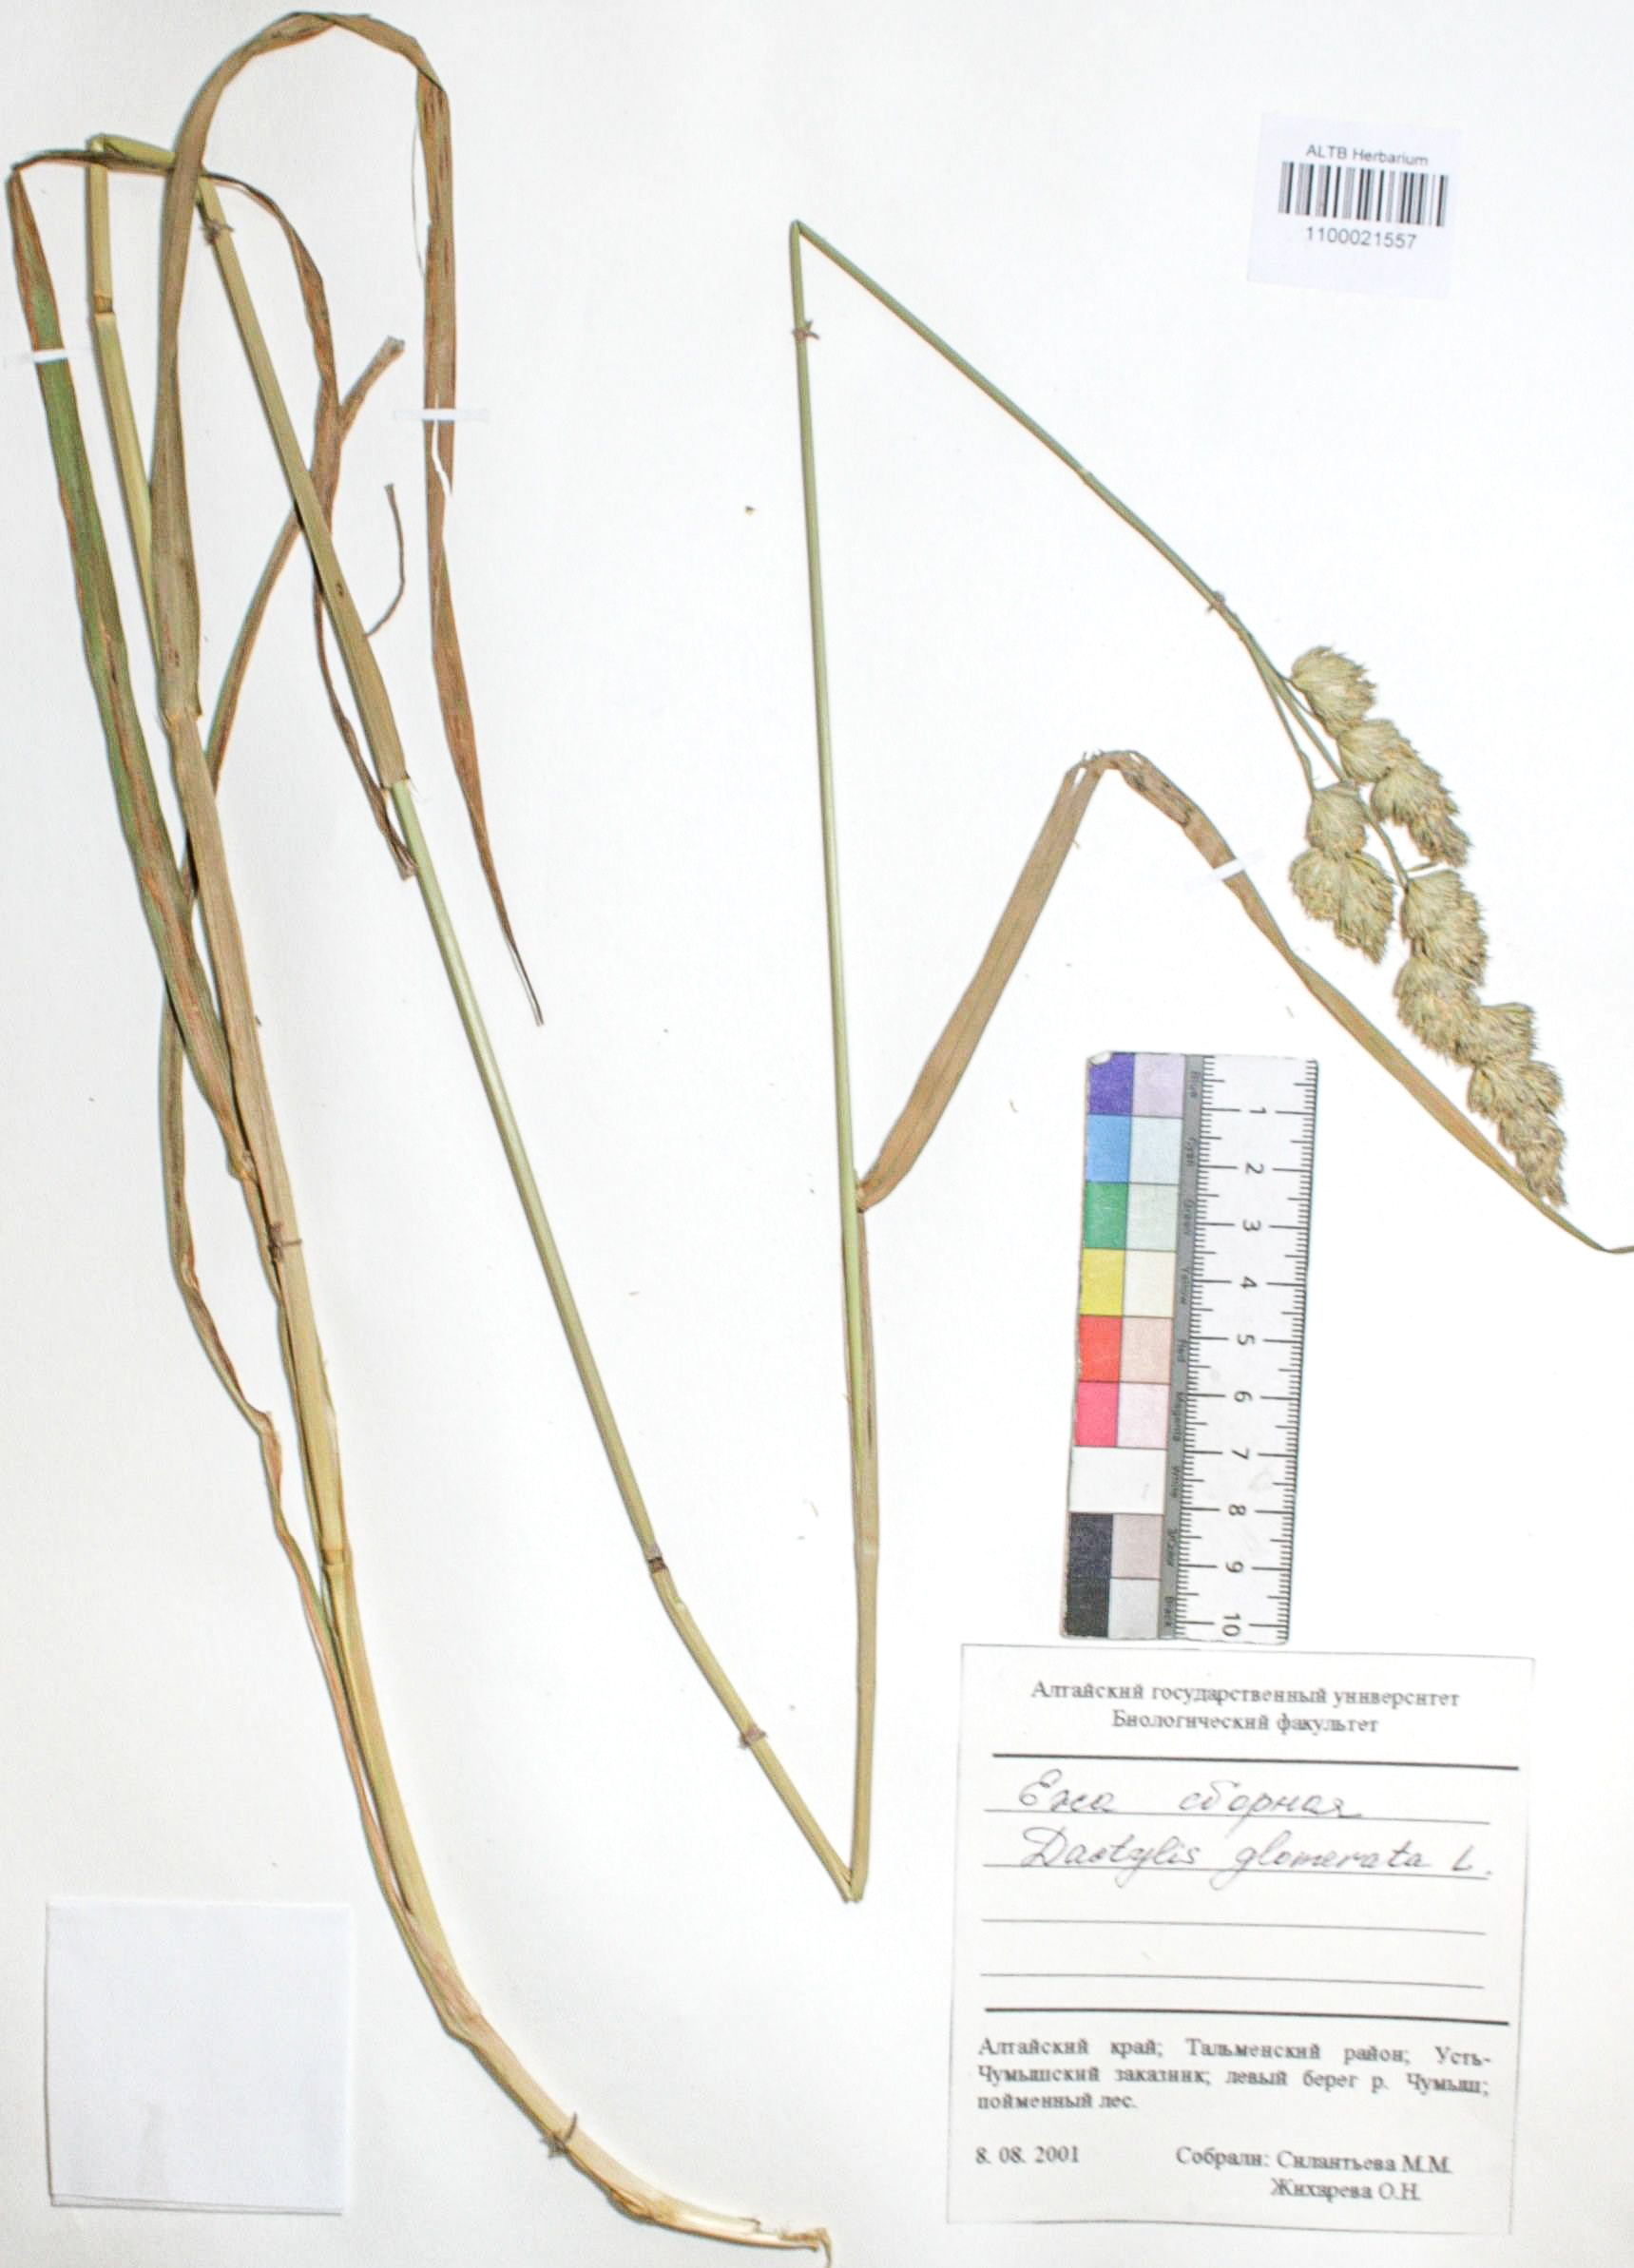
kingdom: Plantae
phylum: Tracheophyta
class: Liliopsida
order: Poales
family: Poaceae
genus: Dactylis
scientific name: Dactylis glomerata
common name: Orchardgrass
